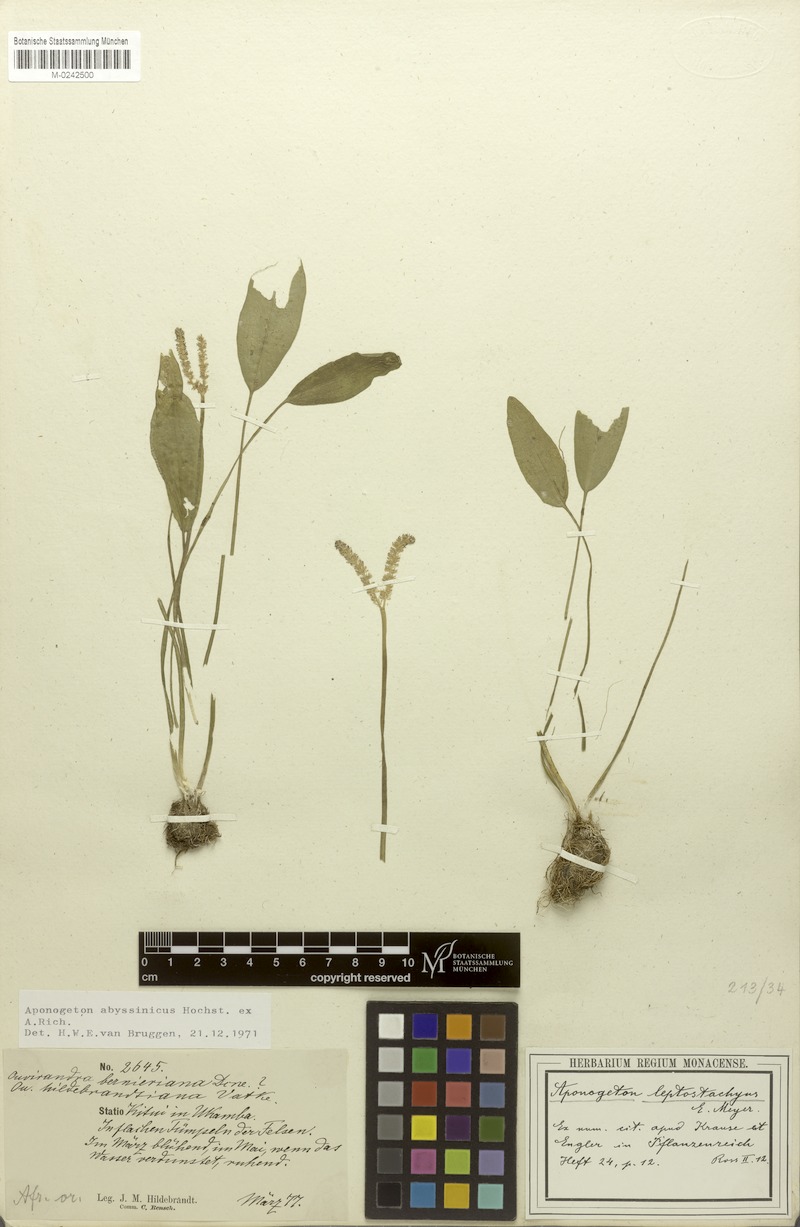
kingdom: Plantae
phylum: Tracheophyta
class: Liliopsida
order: Alismatales
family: Aponogetonaceae
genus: Aponogeton
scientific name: Aponogeton abyssinicus
